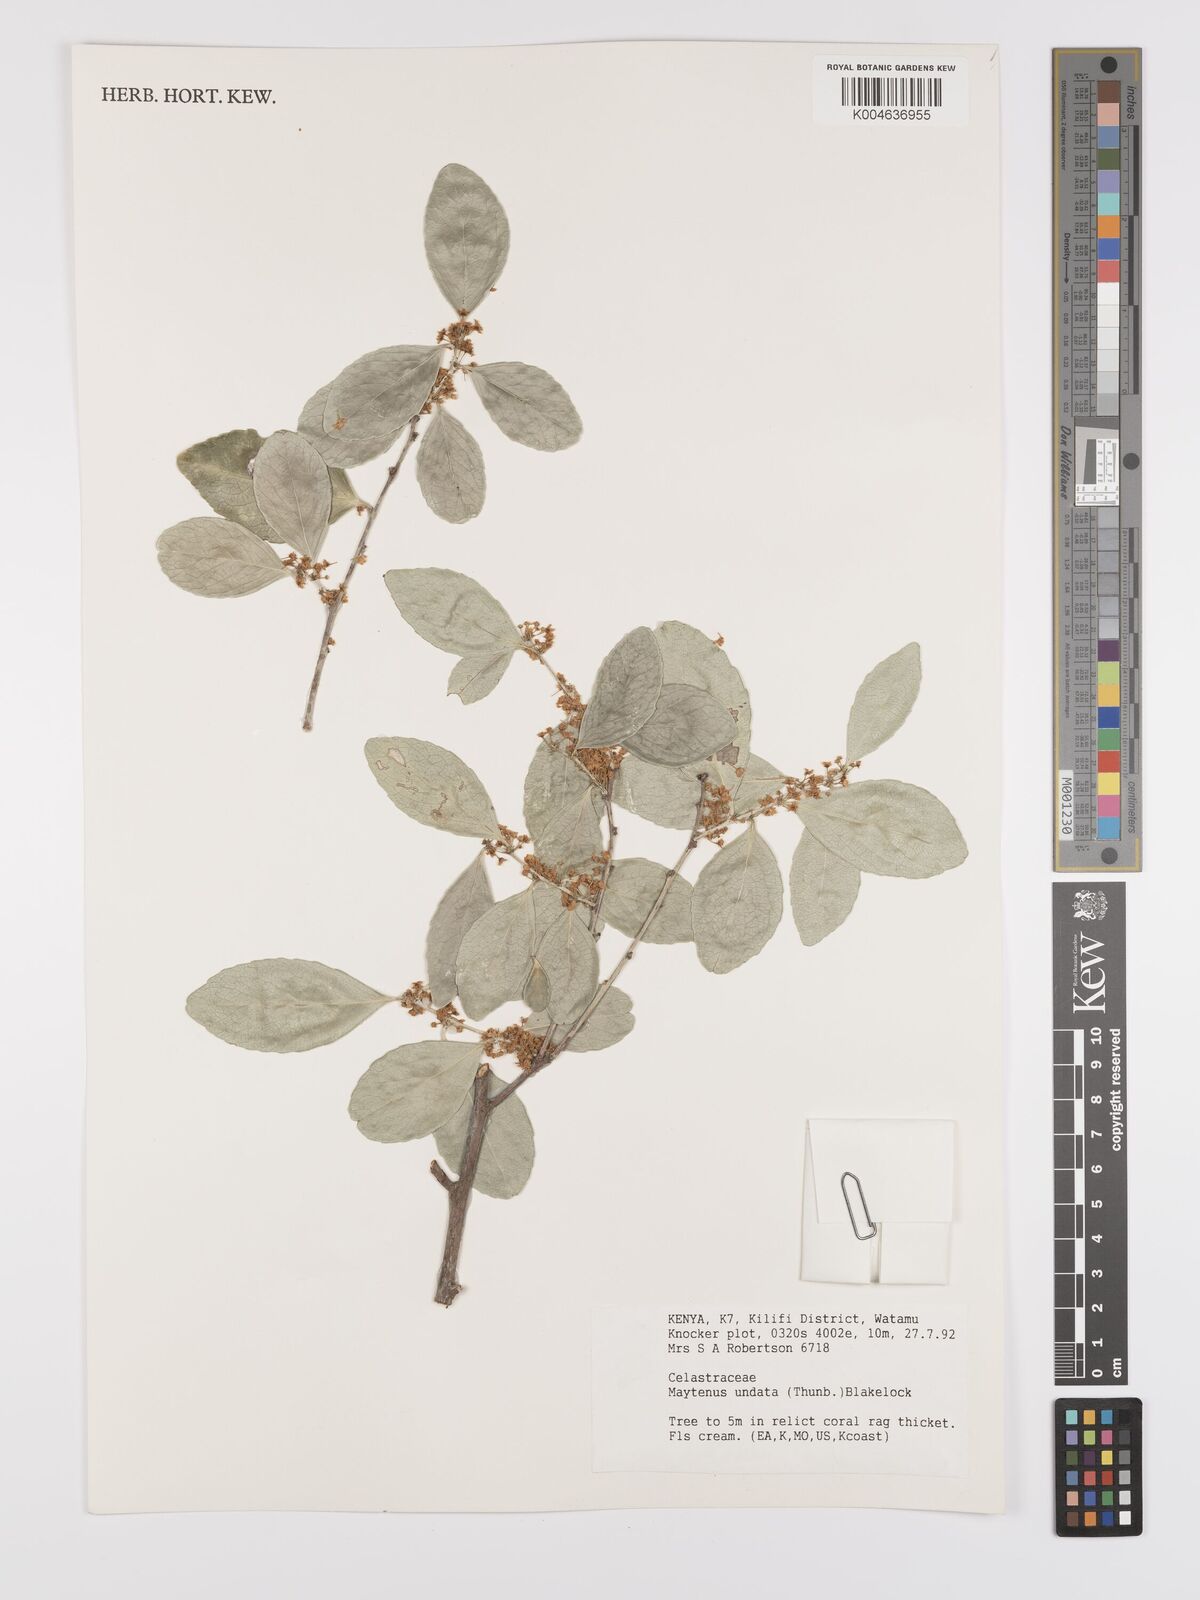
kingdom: Plantae
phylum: Tracheophyta
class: Magnoliopsida
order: Celastrales
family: Celastraceae
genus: Gymnosporia
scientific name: Gymnosporia undata
